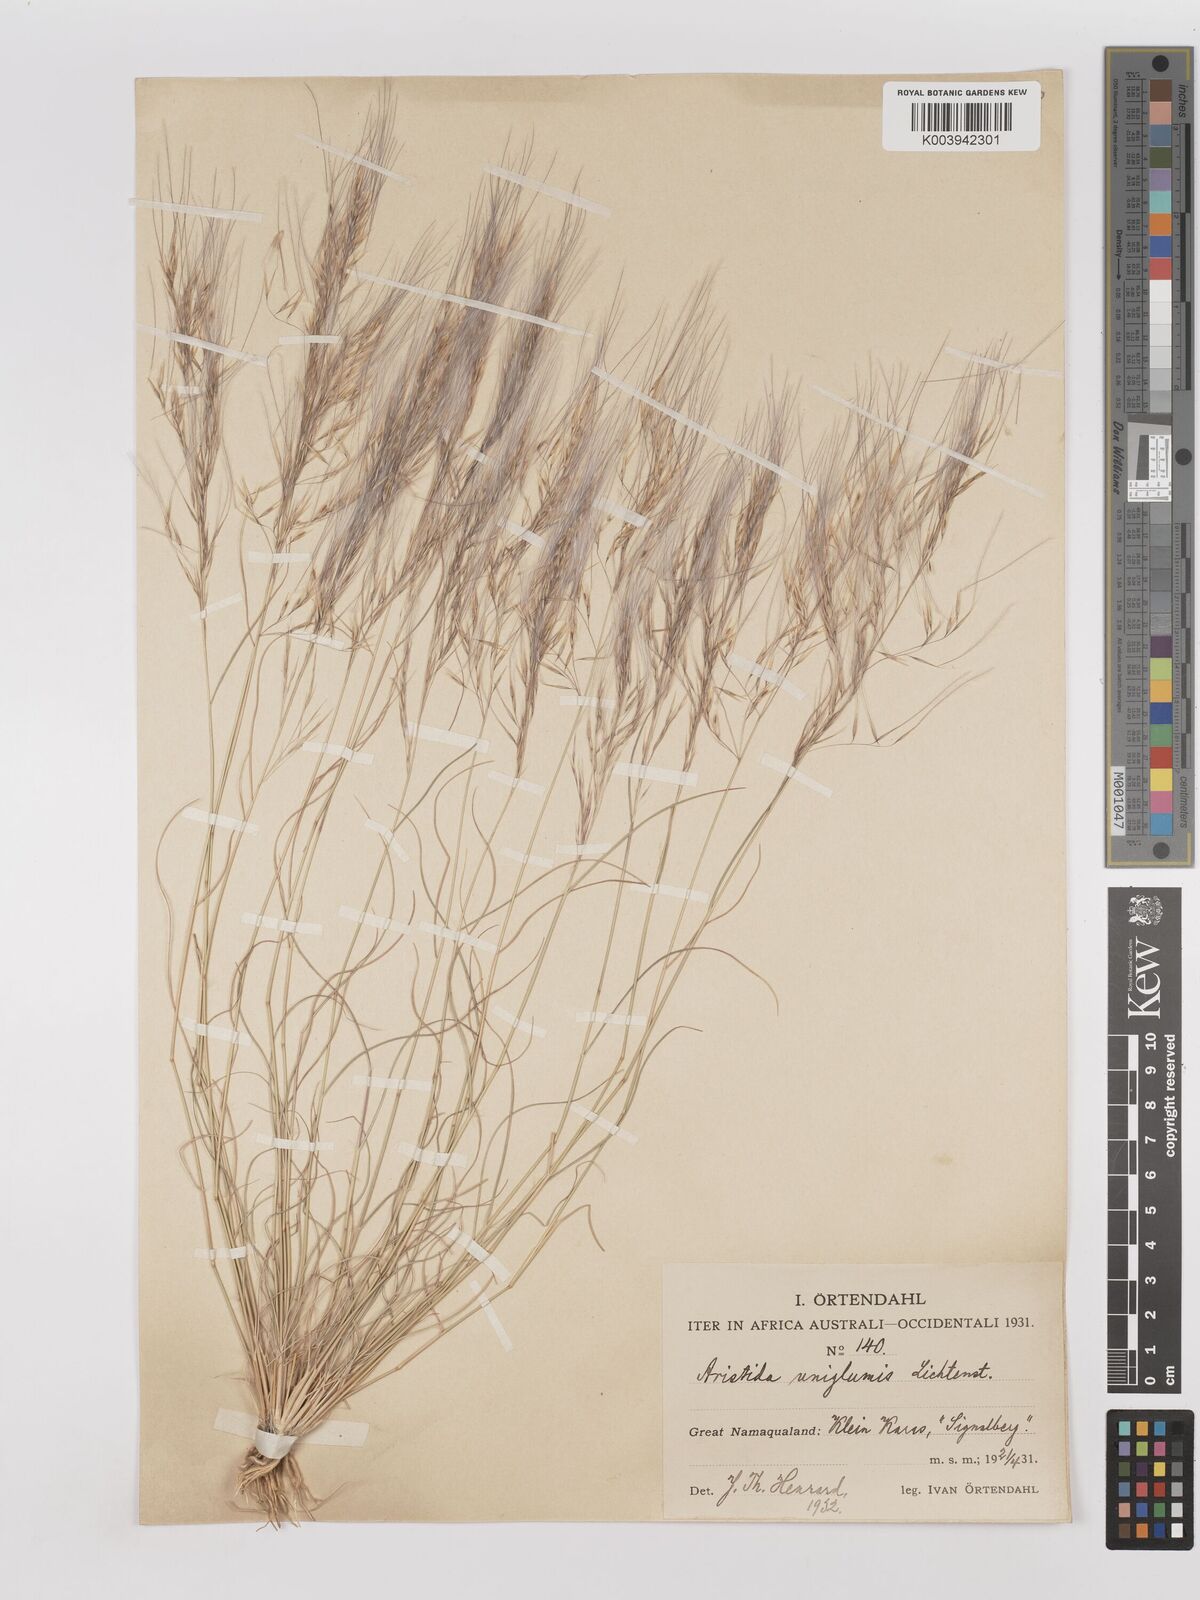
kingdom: Plantae
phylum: Tracheophyta
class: Liliopsida
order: Poales
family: Poaceae
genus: Stipagrostis
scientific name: Stipagrostis uniplumis
